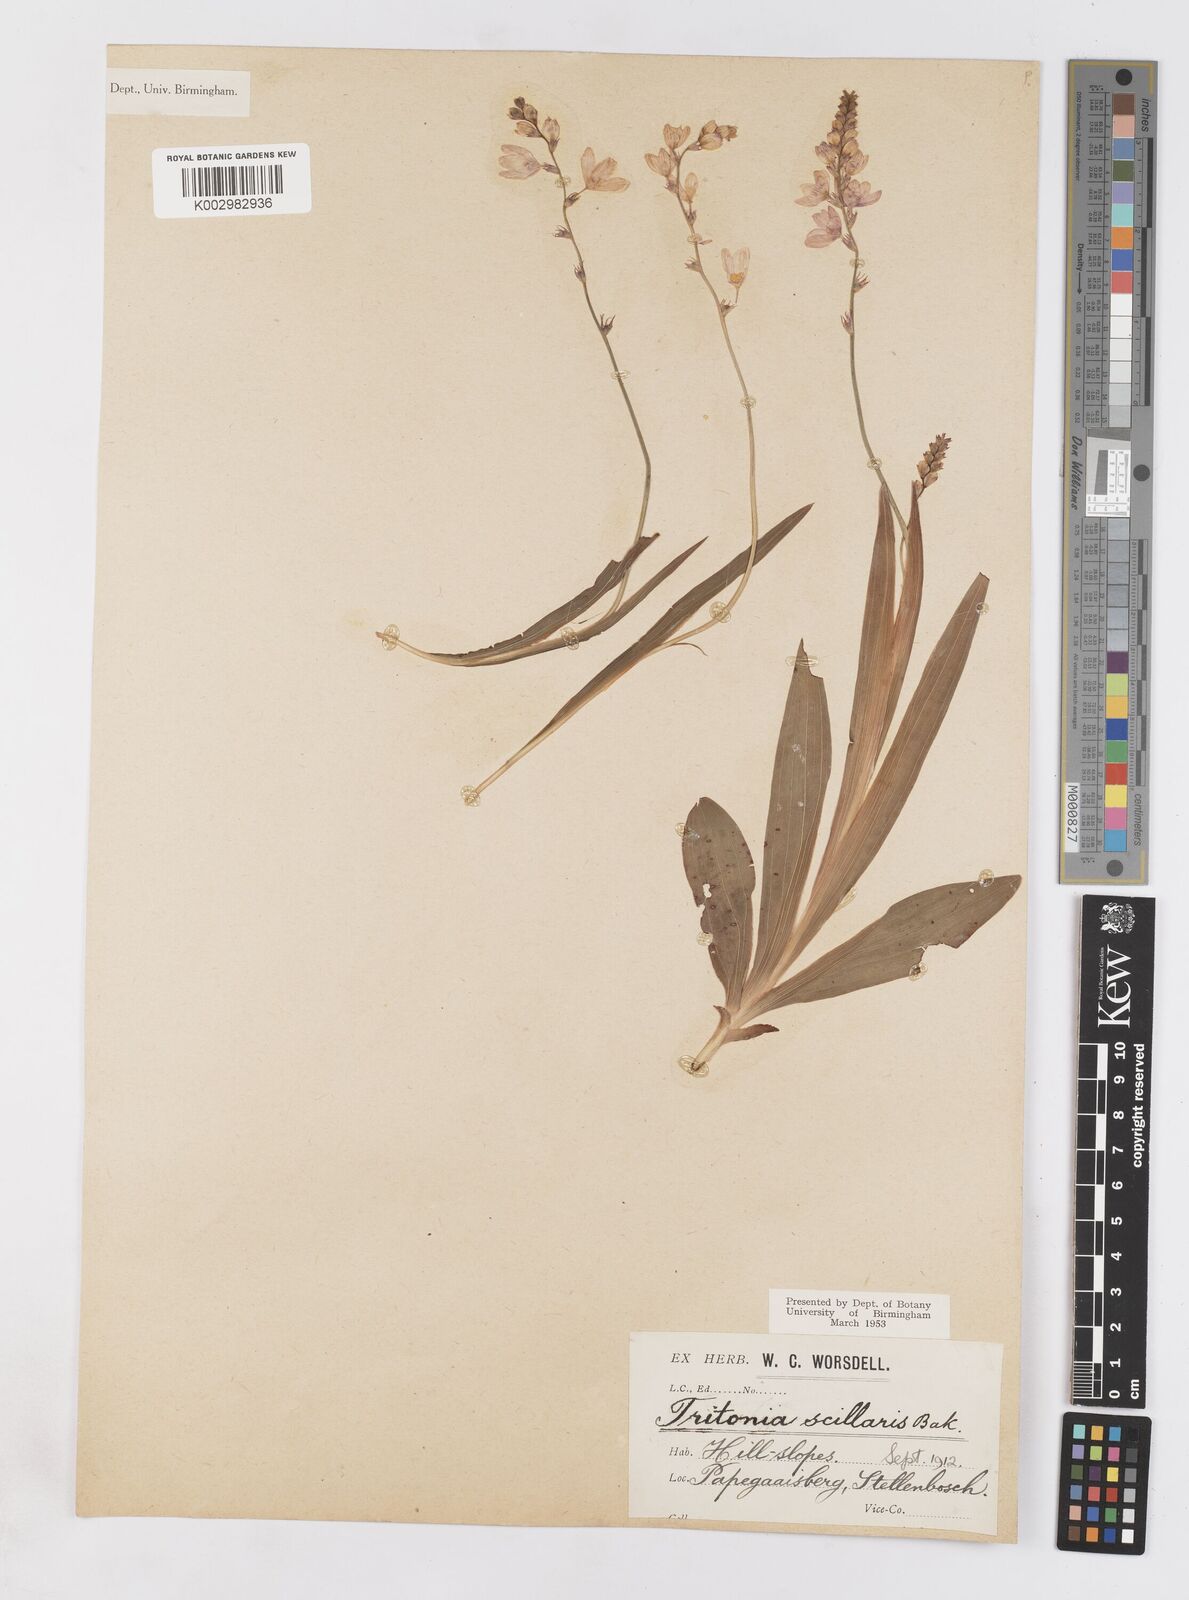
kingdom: Plantae
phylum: Tracheophyta
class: Liliopsida
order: Asparagales
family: Iridaceae
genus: Ixia
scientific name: Ixia scillaris
